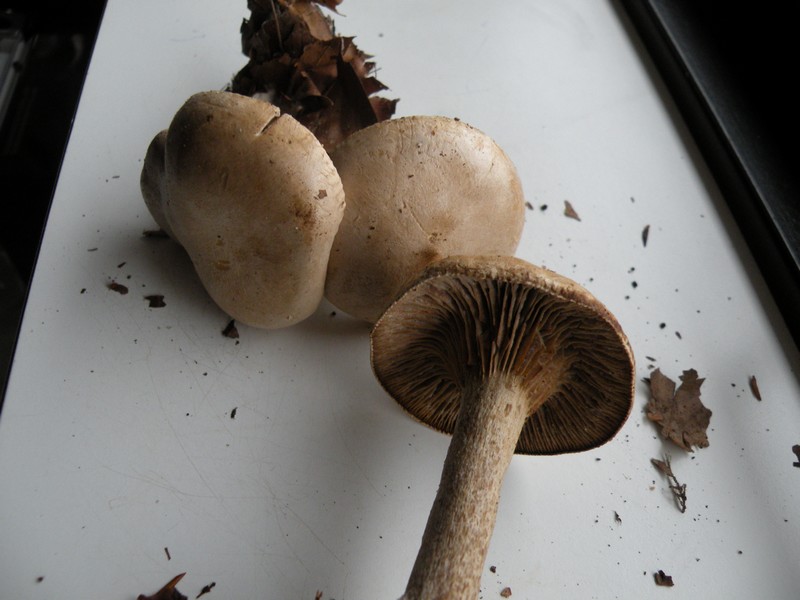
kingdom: Fungi
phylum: Basidiomycota
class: Agaricomycetes
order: Agaricales
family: Tricholomataceae
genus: Atractosporocybe
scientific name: Atractosporocybe inornata
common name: filtstokket tragthat
